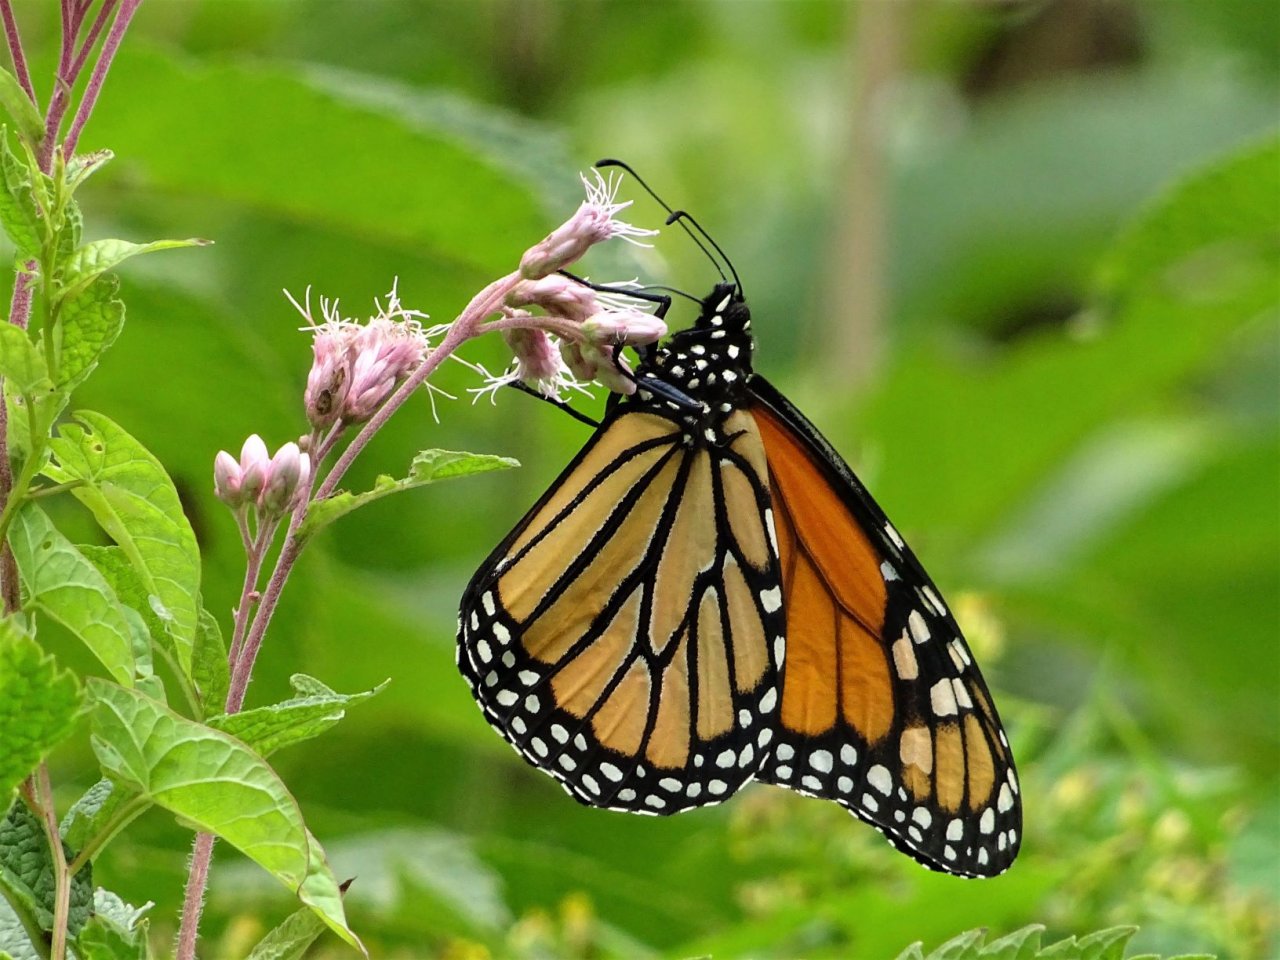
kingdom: Animalia
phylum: Arthropoda
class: Insecta
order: Lepidoptera
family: Nymphalidae
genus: Danaus
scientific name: Danaus plexippus
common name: Monarch
